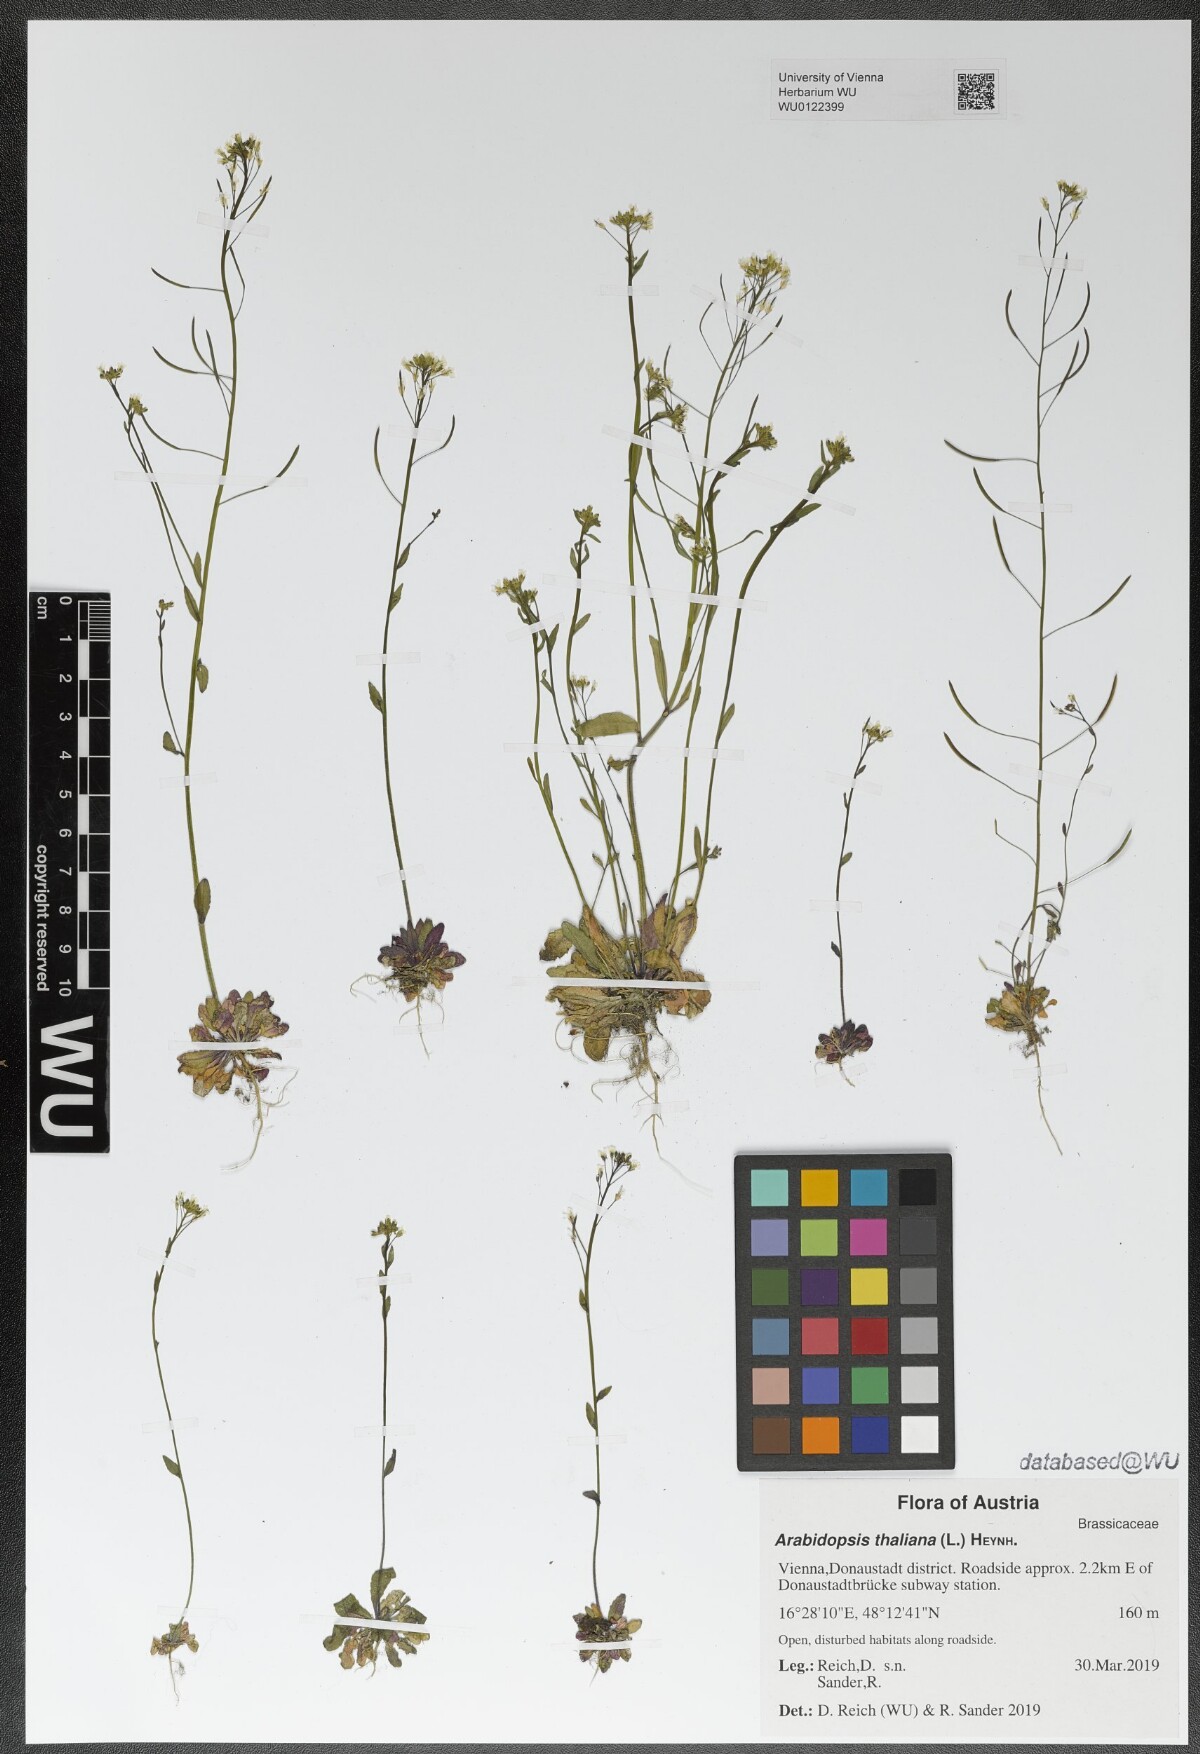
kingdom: Plantae
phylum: Tracheophyta
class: Magnoliopsida
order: Brassicales
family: Brassicaceae
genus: Arabidopsis
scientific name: Arabidopsis thaliana
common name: Thale cress
